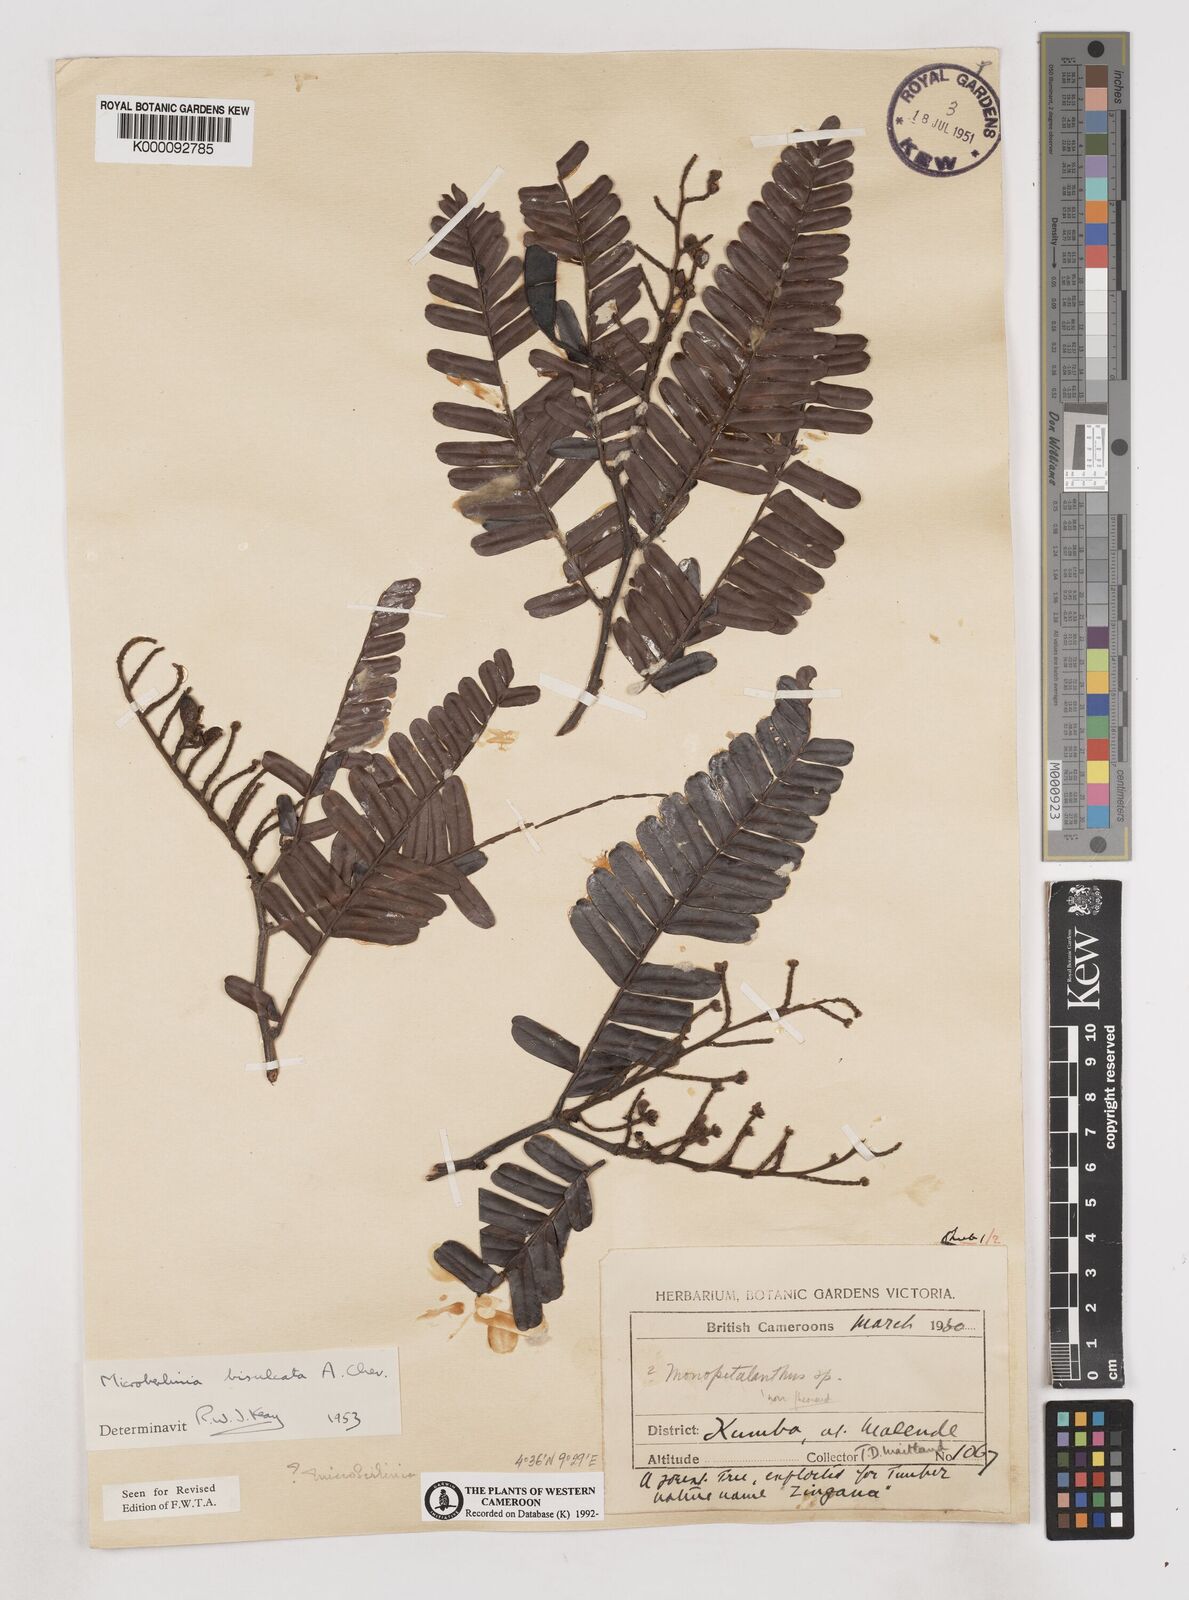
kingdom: Plantae
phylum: Tracheophyta
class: Magnoliopsida
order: Fabales
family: Fabaceae
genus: Microberlinia
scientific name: Microberlinia bisulcata
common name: Zingana
